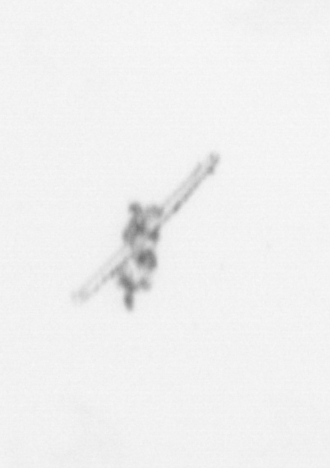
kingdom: Chromista
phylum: Ochrophyta
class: Bacillariophyceae
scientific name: Bacillariophyceae
